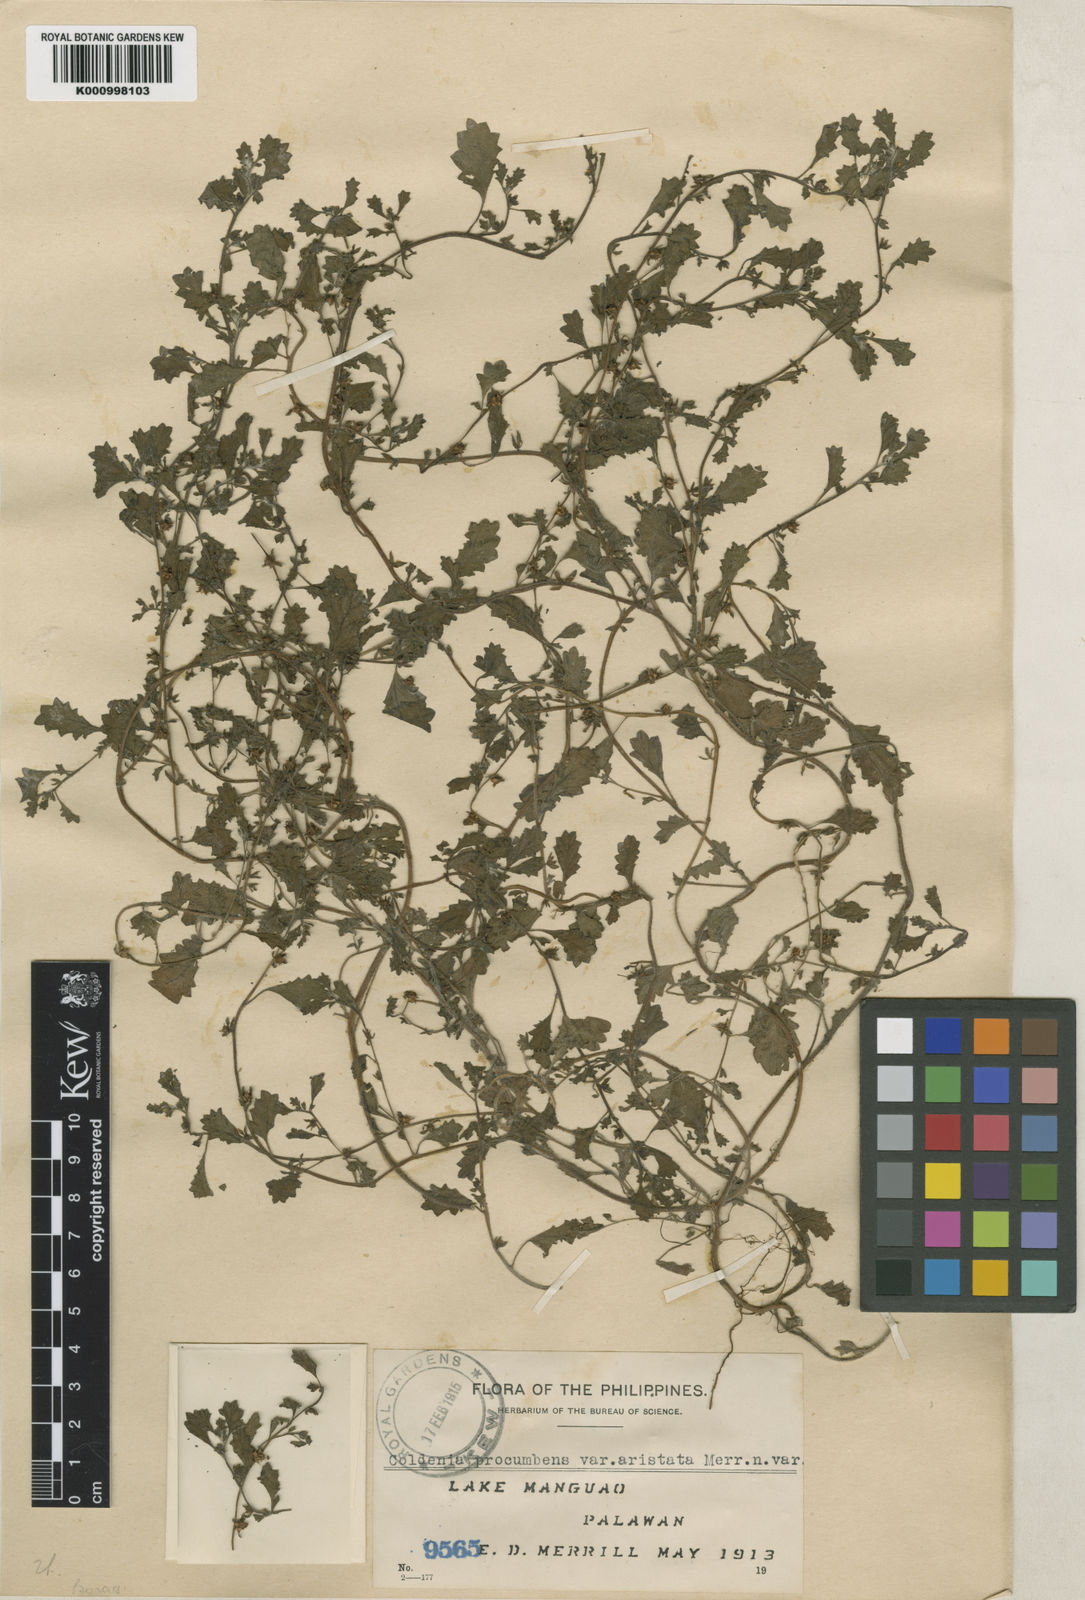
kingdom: Plantae
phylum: Tracheophyta
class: Magnoliopsida
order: Boraginales
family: Coldeniaceae
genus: Coldenia
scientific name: Coldenia procumbens
